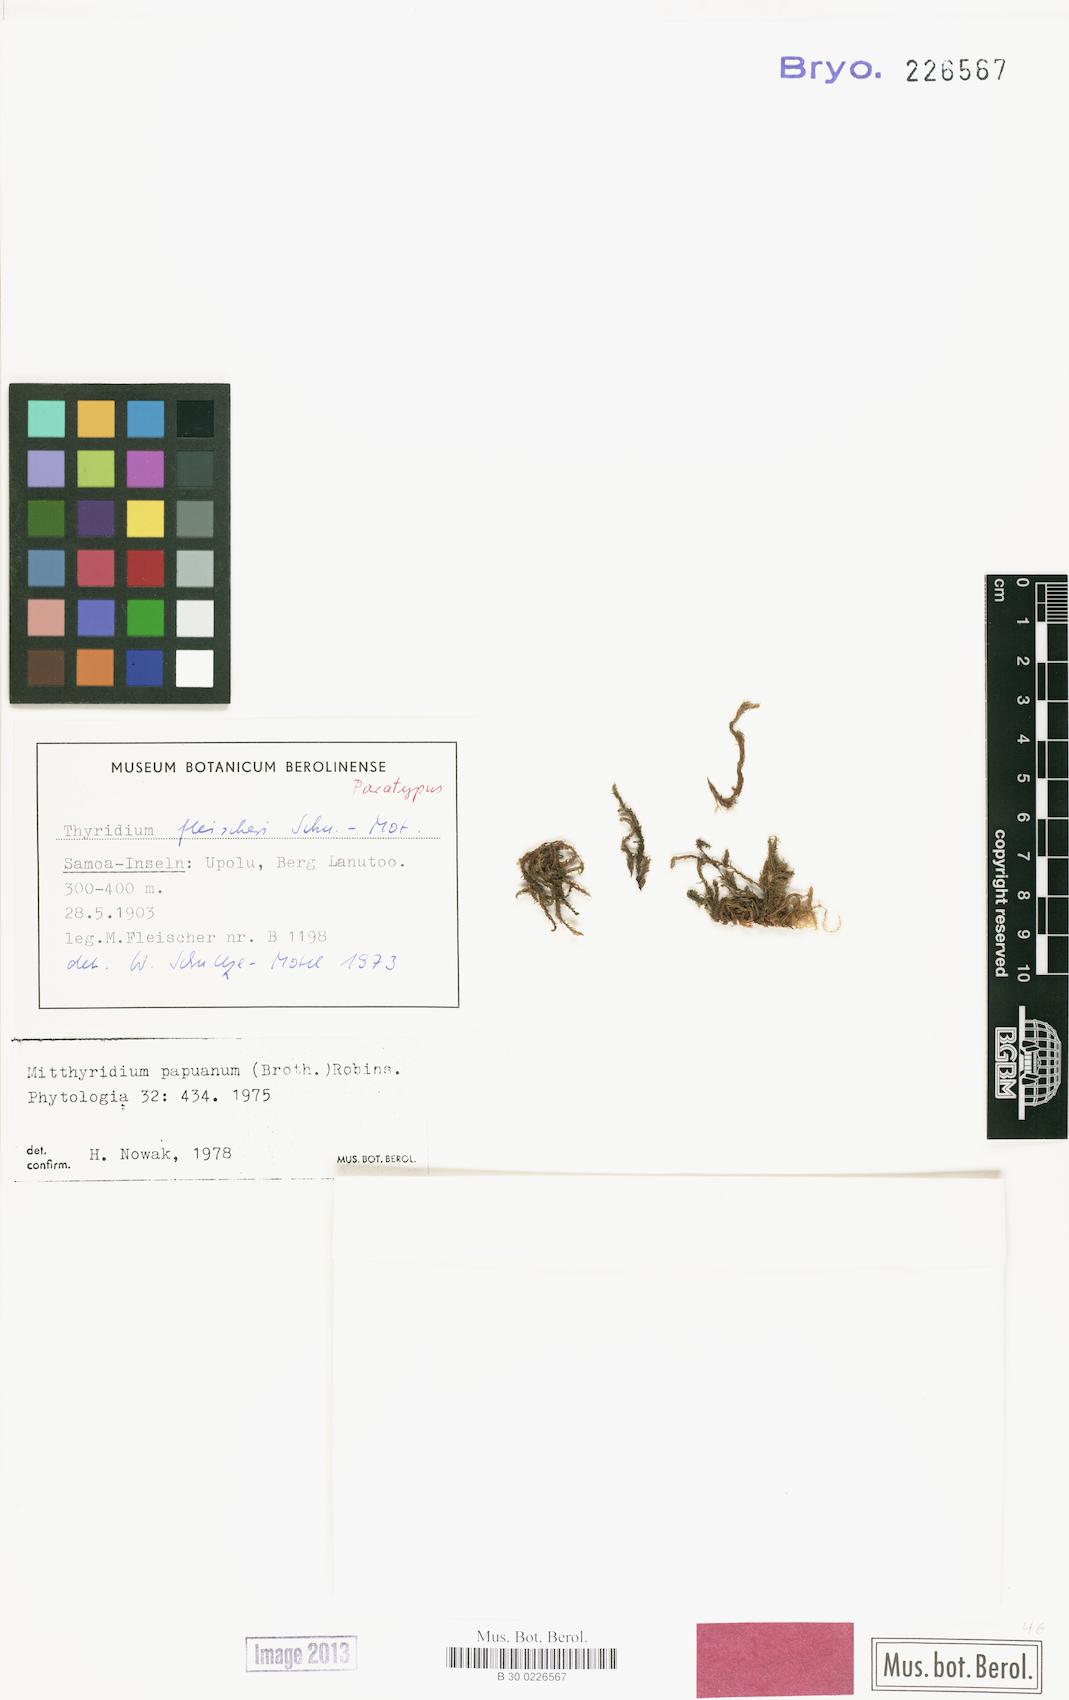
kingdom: Plantae
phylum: Bryophyta
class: Bryopsida
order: Dicranales
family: Calymperaceae
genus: Mitthyridium
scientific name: Mitthyridium papuanum
